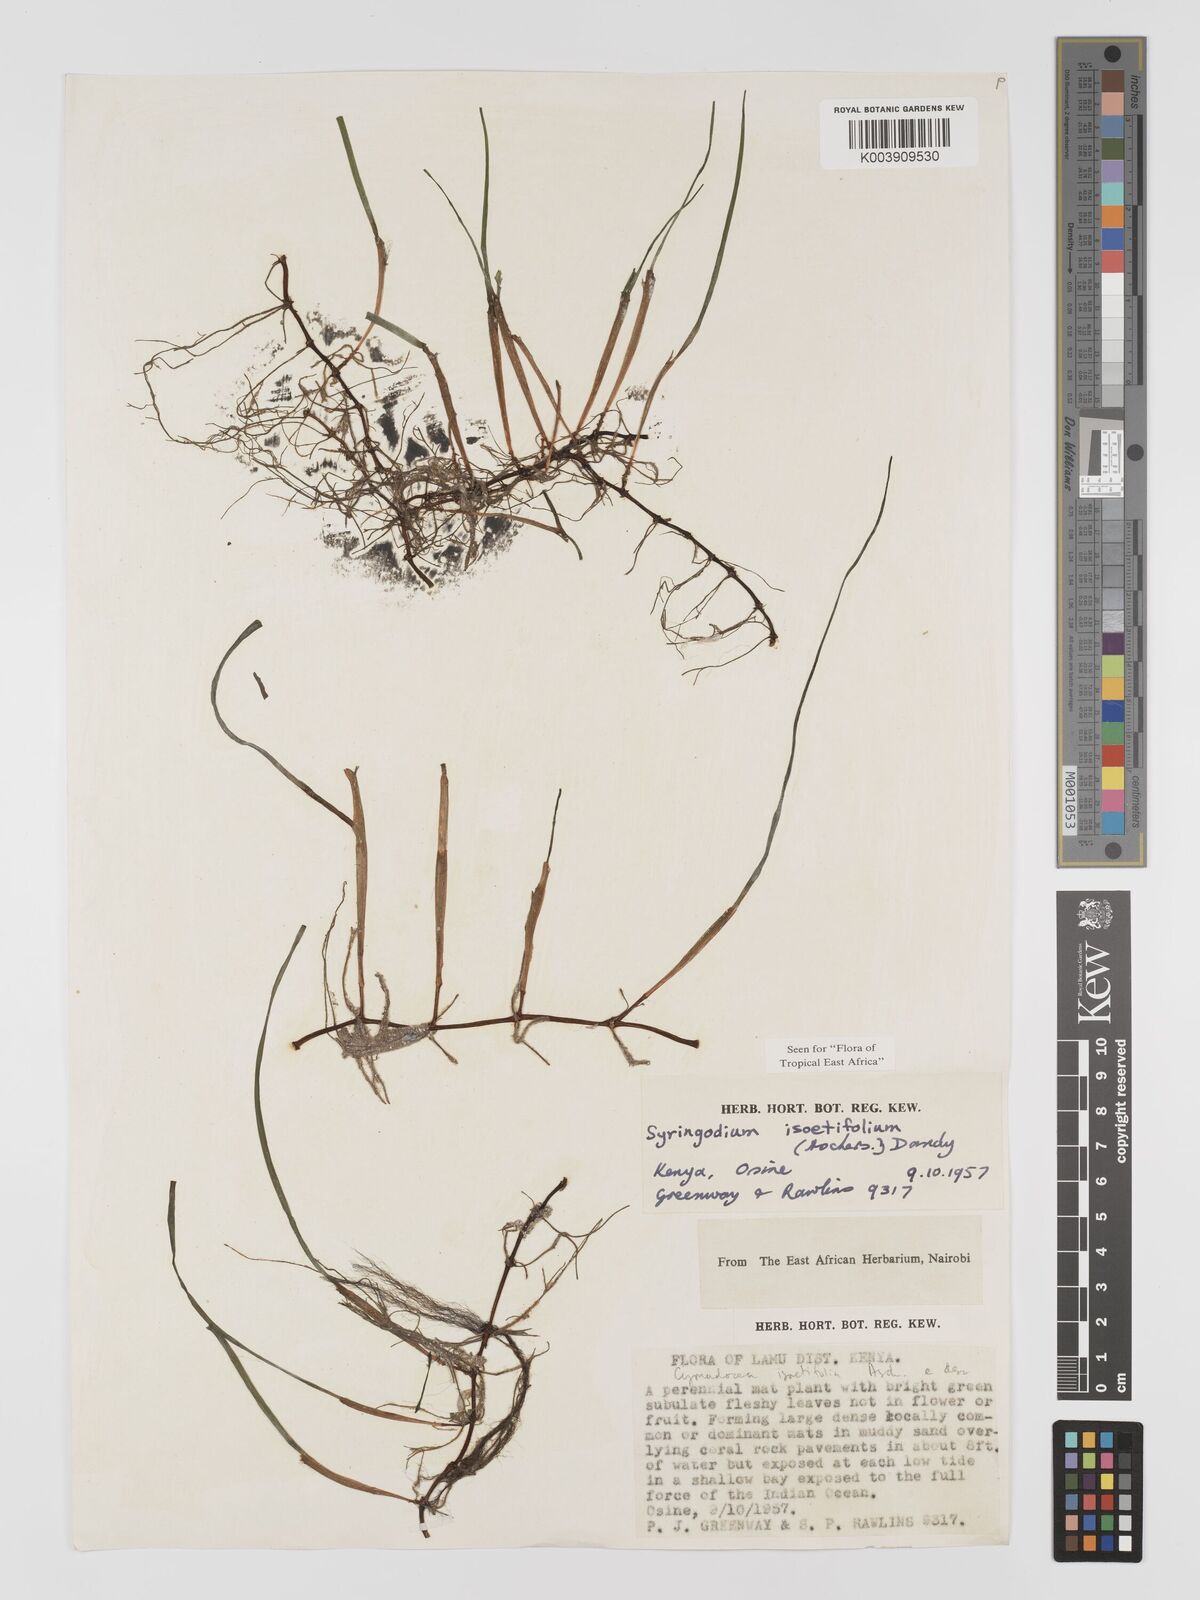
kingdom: Plantae
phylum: Tracheophyta
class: Liliopsida
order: Alismatales
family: Cymodoceaceae
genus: Syringodium
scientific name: Syringodium isoetifolium
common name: Species code: si
